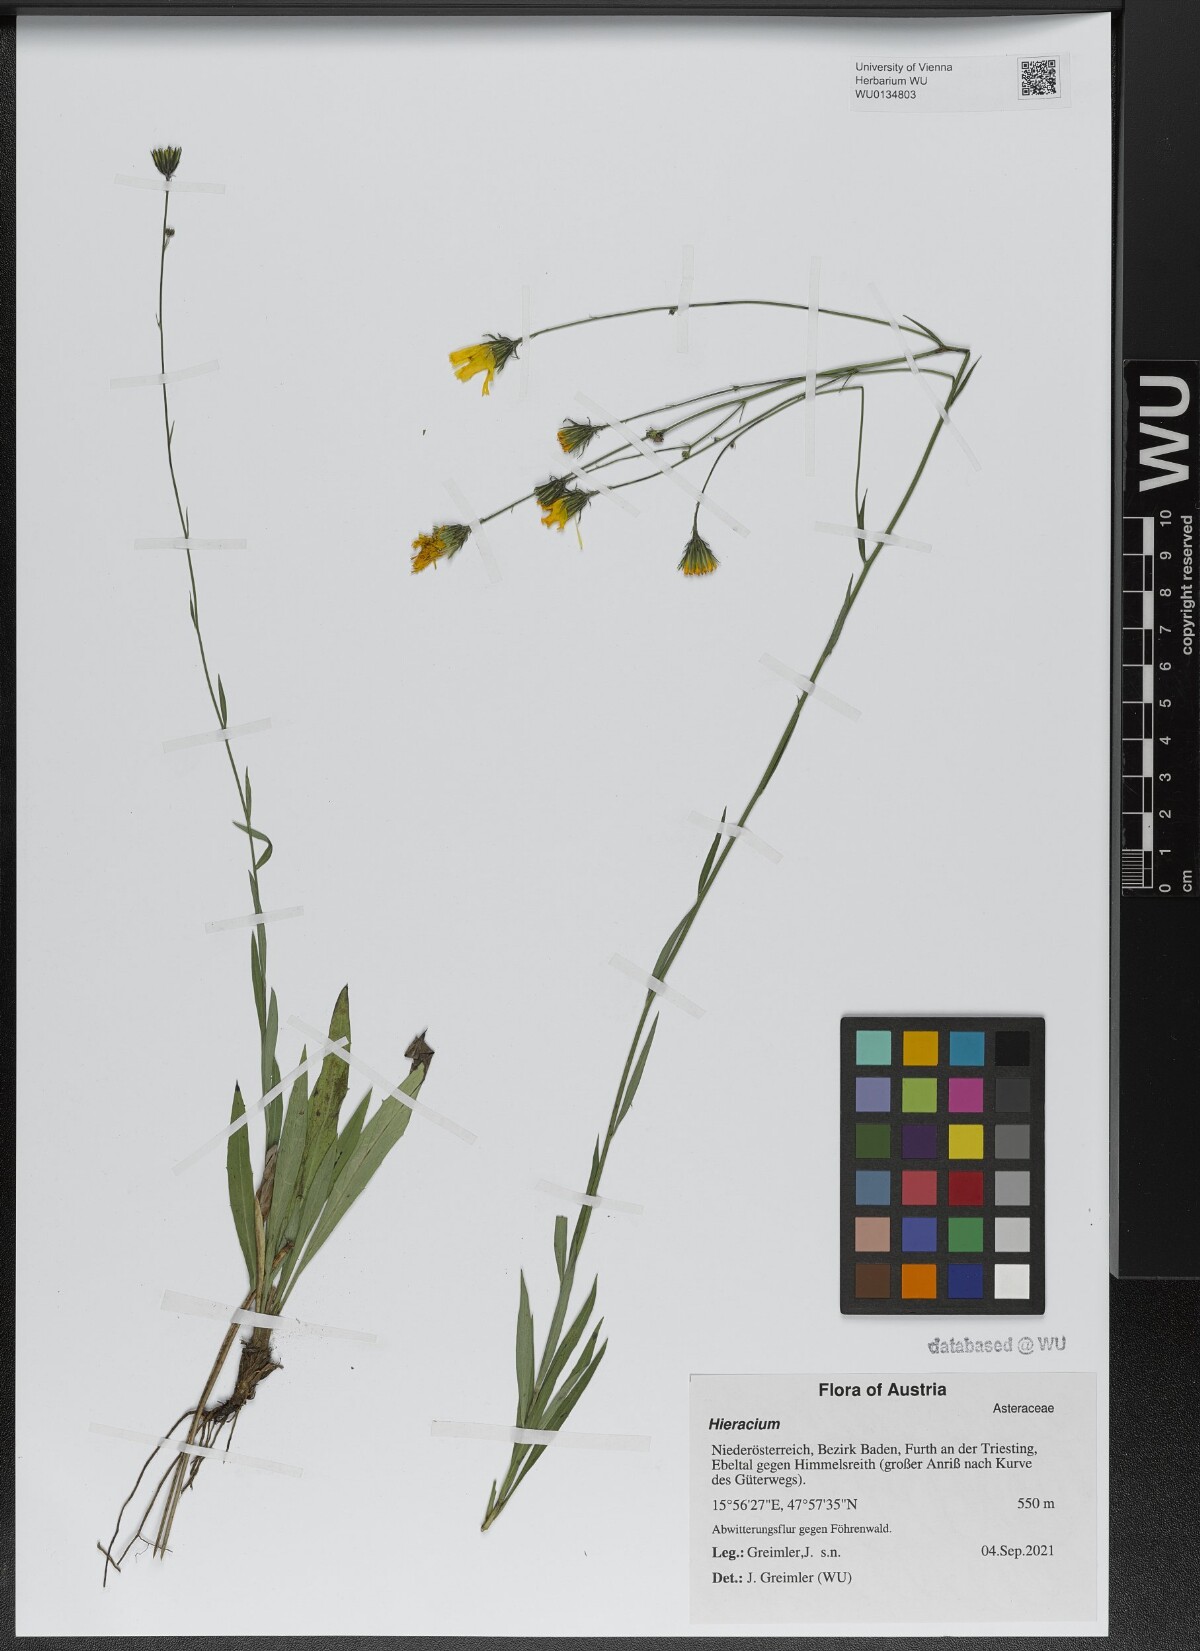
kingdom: Plantae
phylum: Tracheophyta
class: Magnoliopsida
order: Asterales
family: Asteraceae
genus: Hieracium
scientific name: Hieracium glaucum
